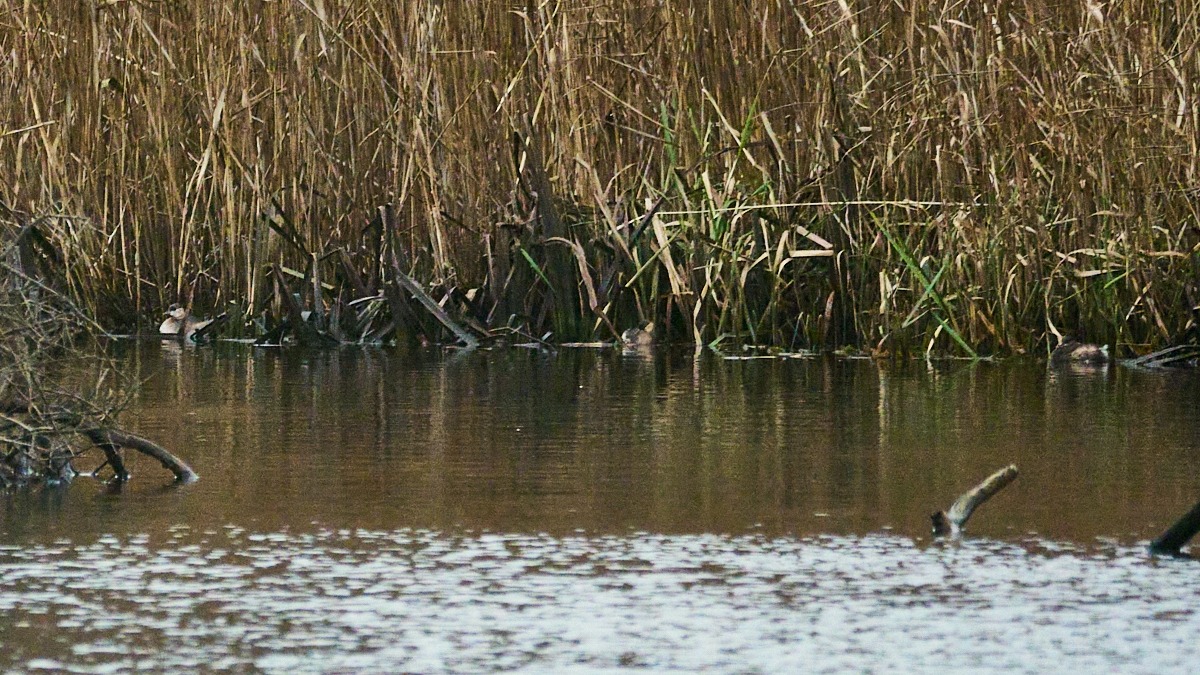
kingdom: Animalia
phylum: Chordata
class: Aves
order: Podicipediformes
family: Podicipedidae
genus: Tachybaptus
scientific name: Tachybaptus ruficollis
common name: Lille lappedykker
